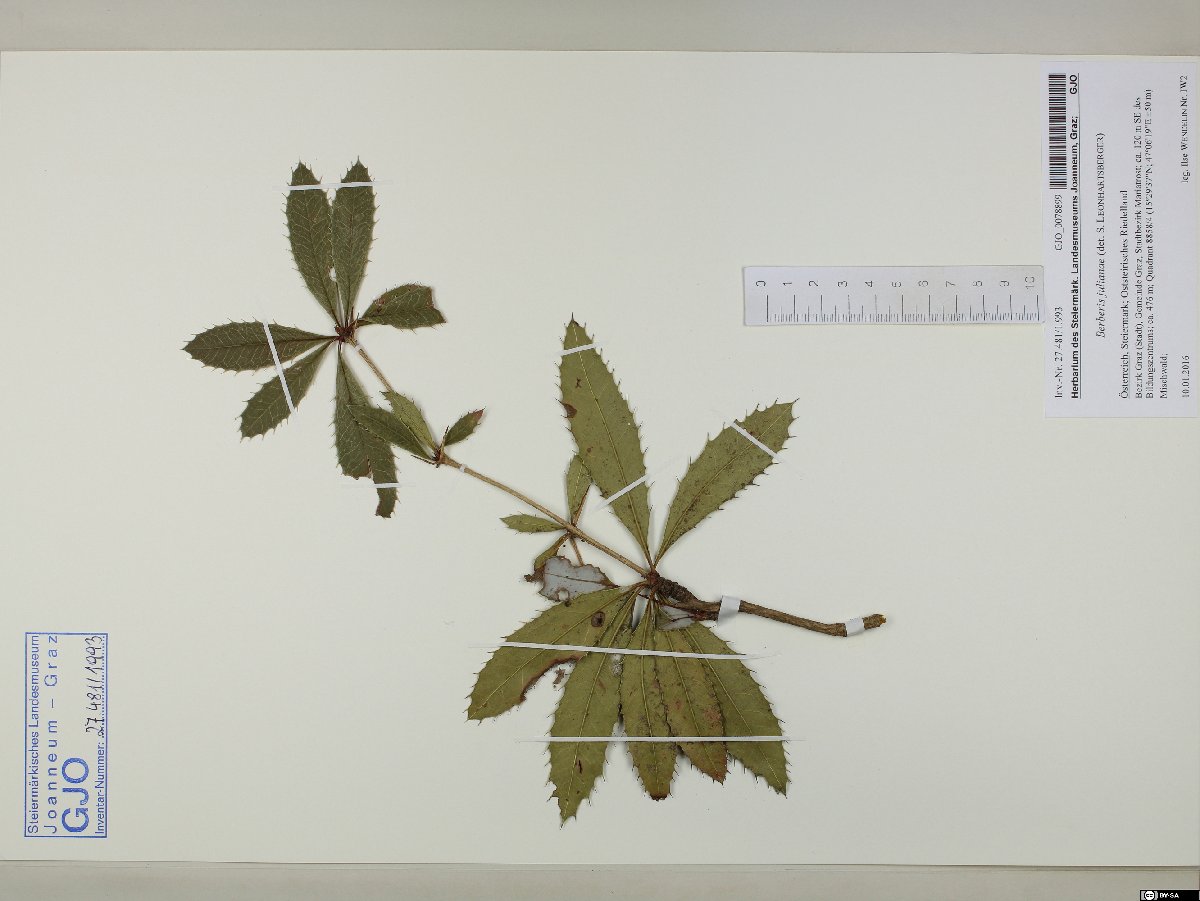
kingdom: Plantae
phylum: Tracheophyta
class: Magnoliopsida
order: Ranunculales
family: Berberidaceae
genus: Berberis
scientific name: Berberis julianae
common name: Wintergreen barberry
